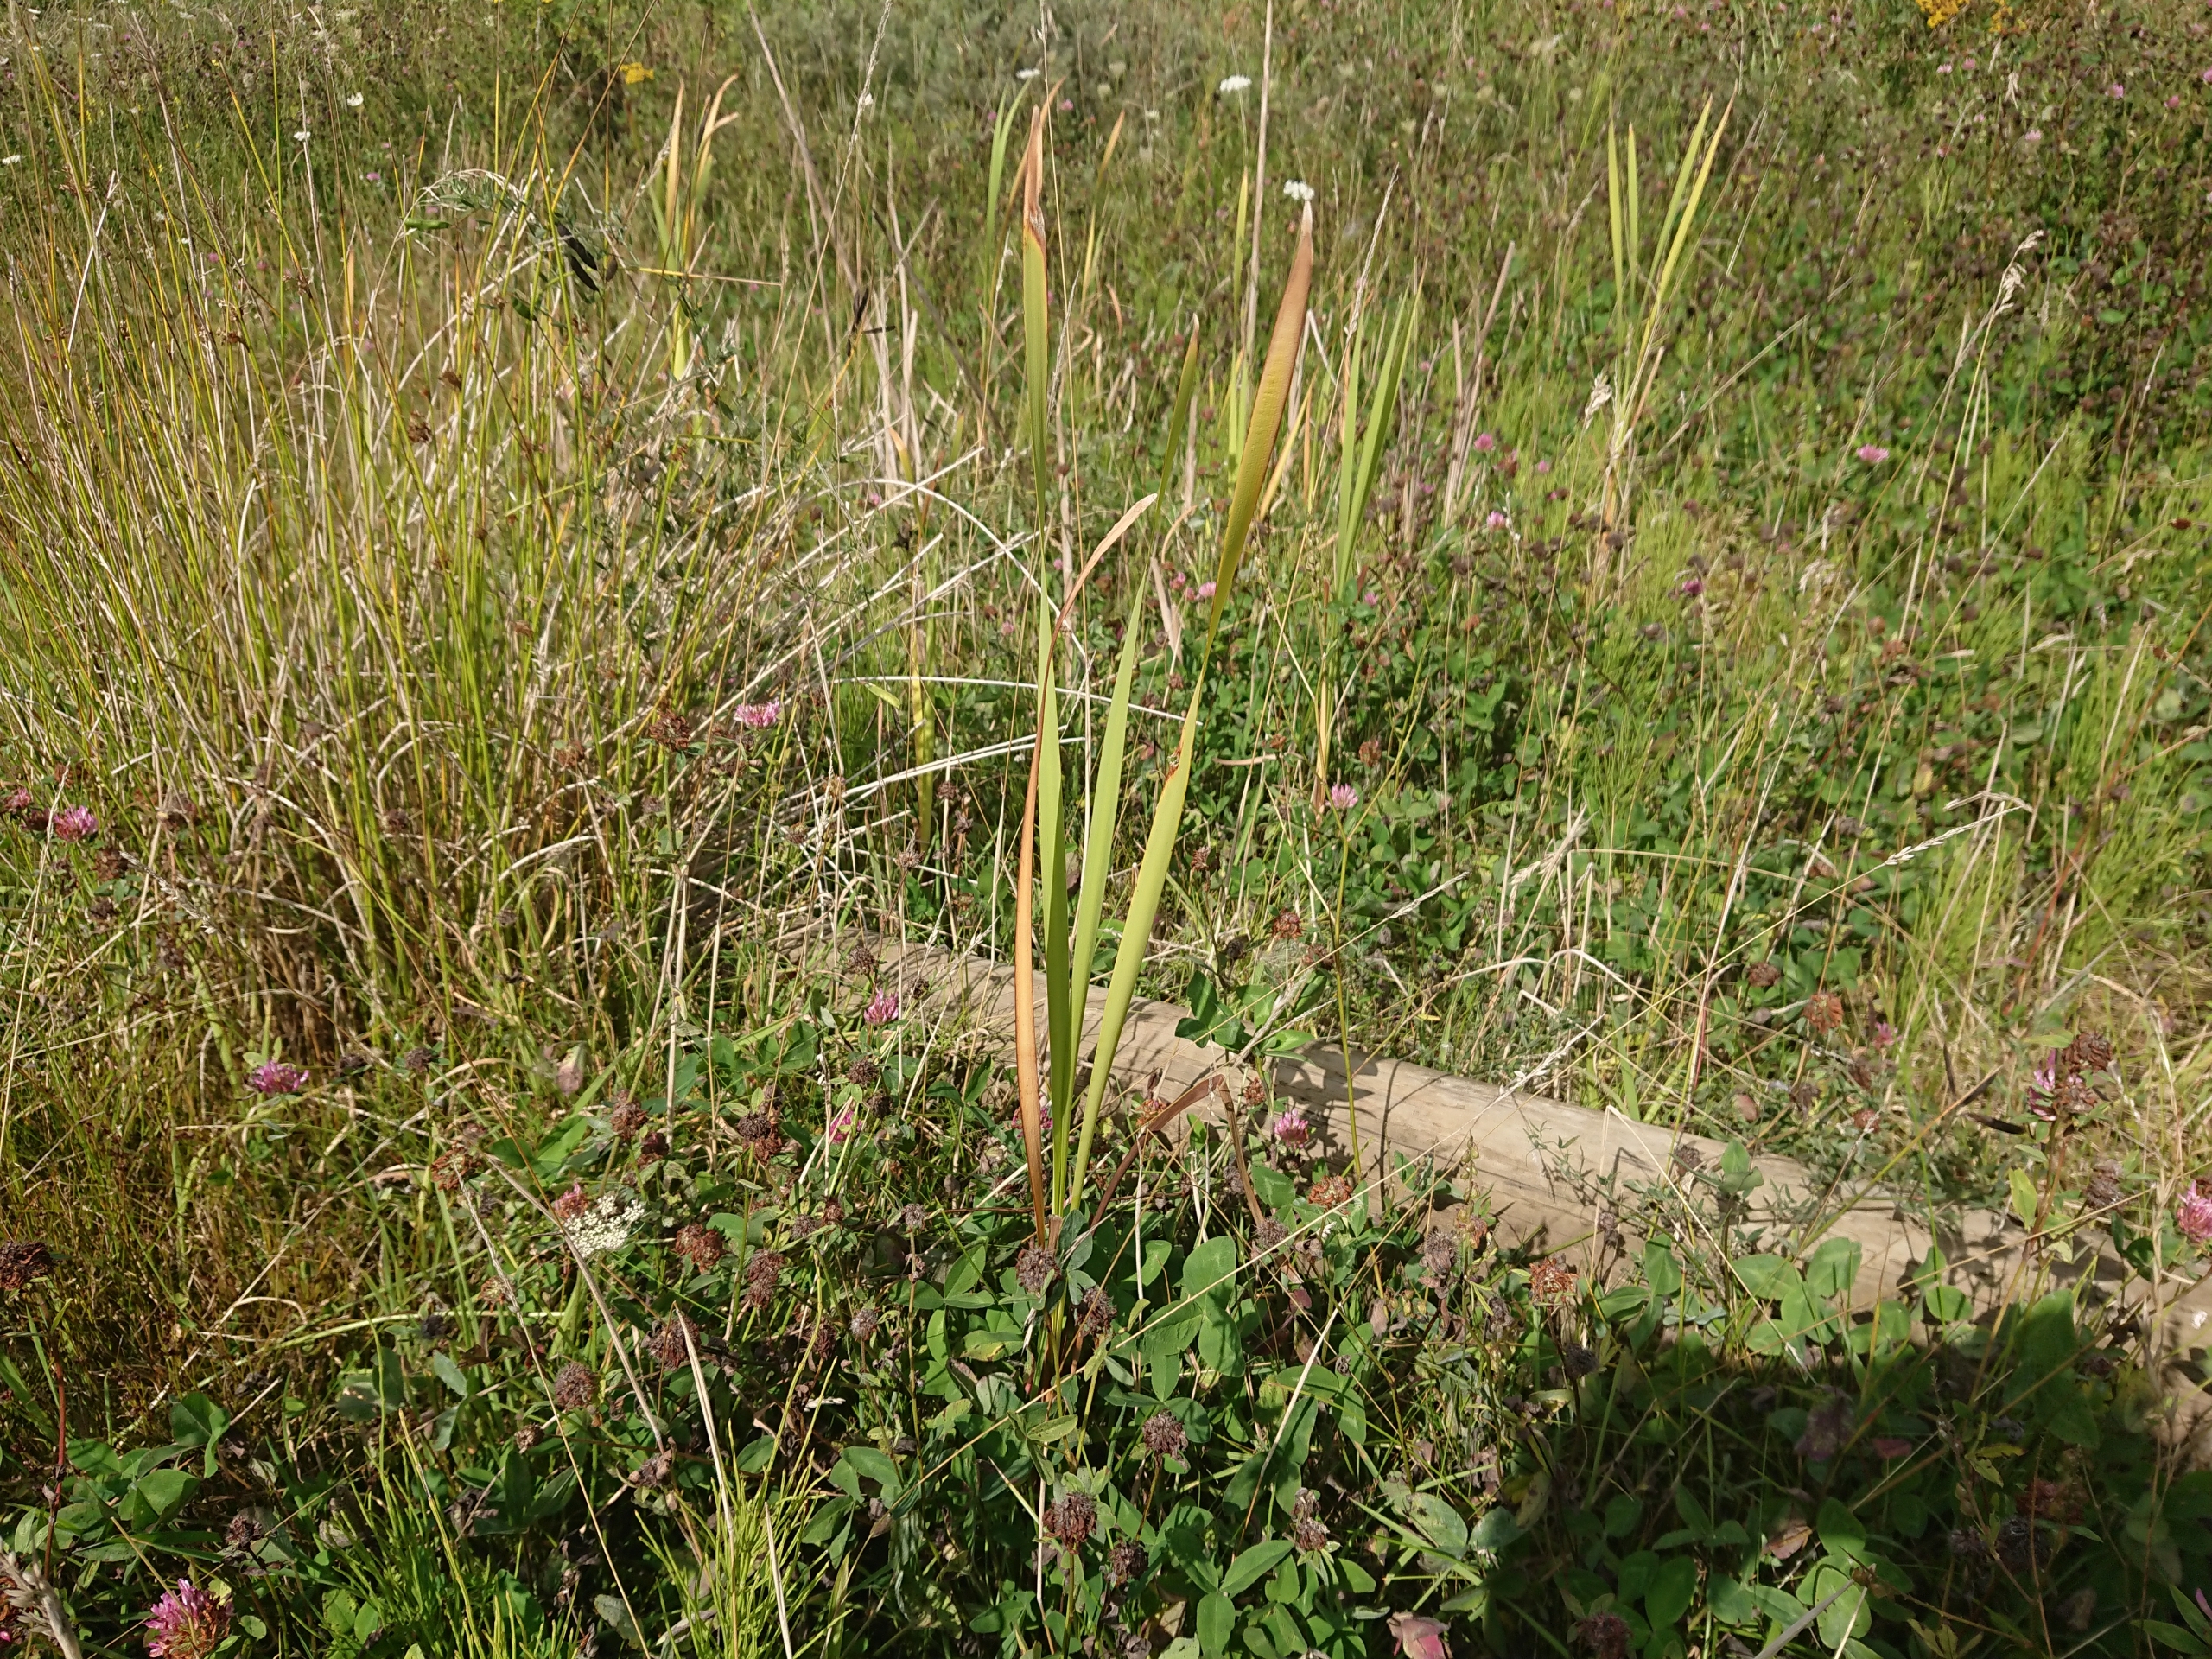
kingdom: Plantae
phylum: Tracheophyta
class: Liliopsida
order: Poales
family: Typhaceae
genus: Typha
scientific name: Typha latifolia
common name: Bredbladet dunhammer
